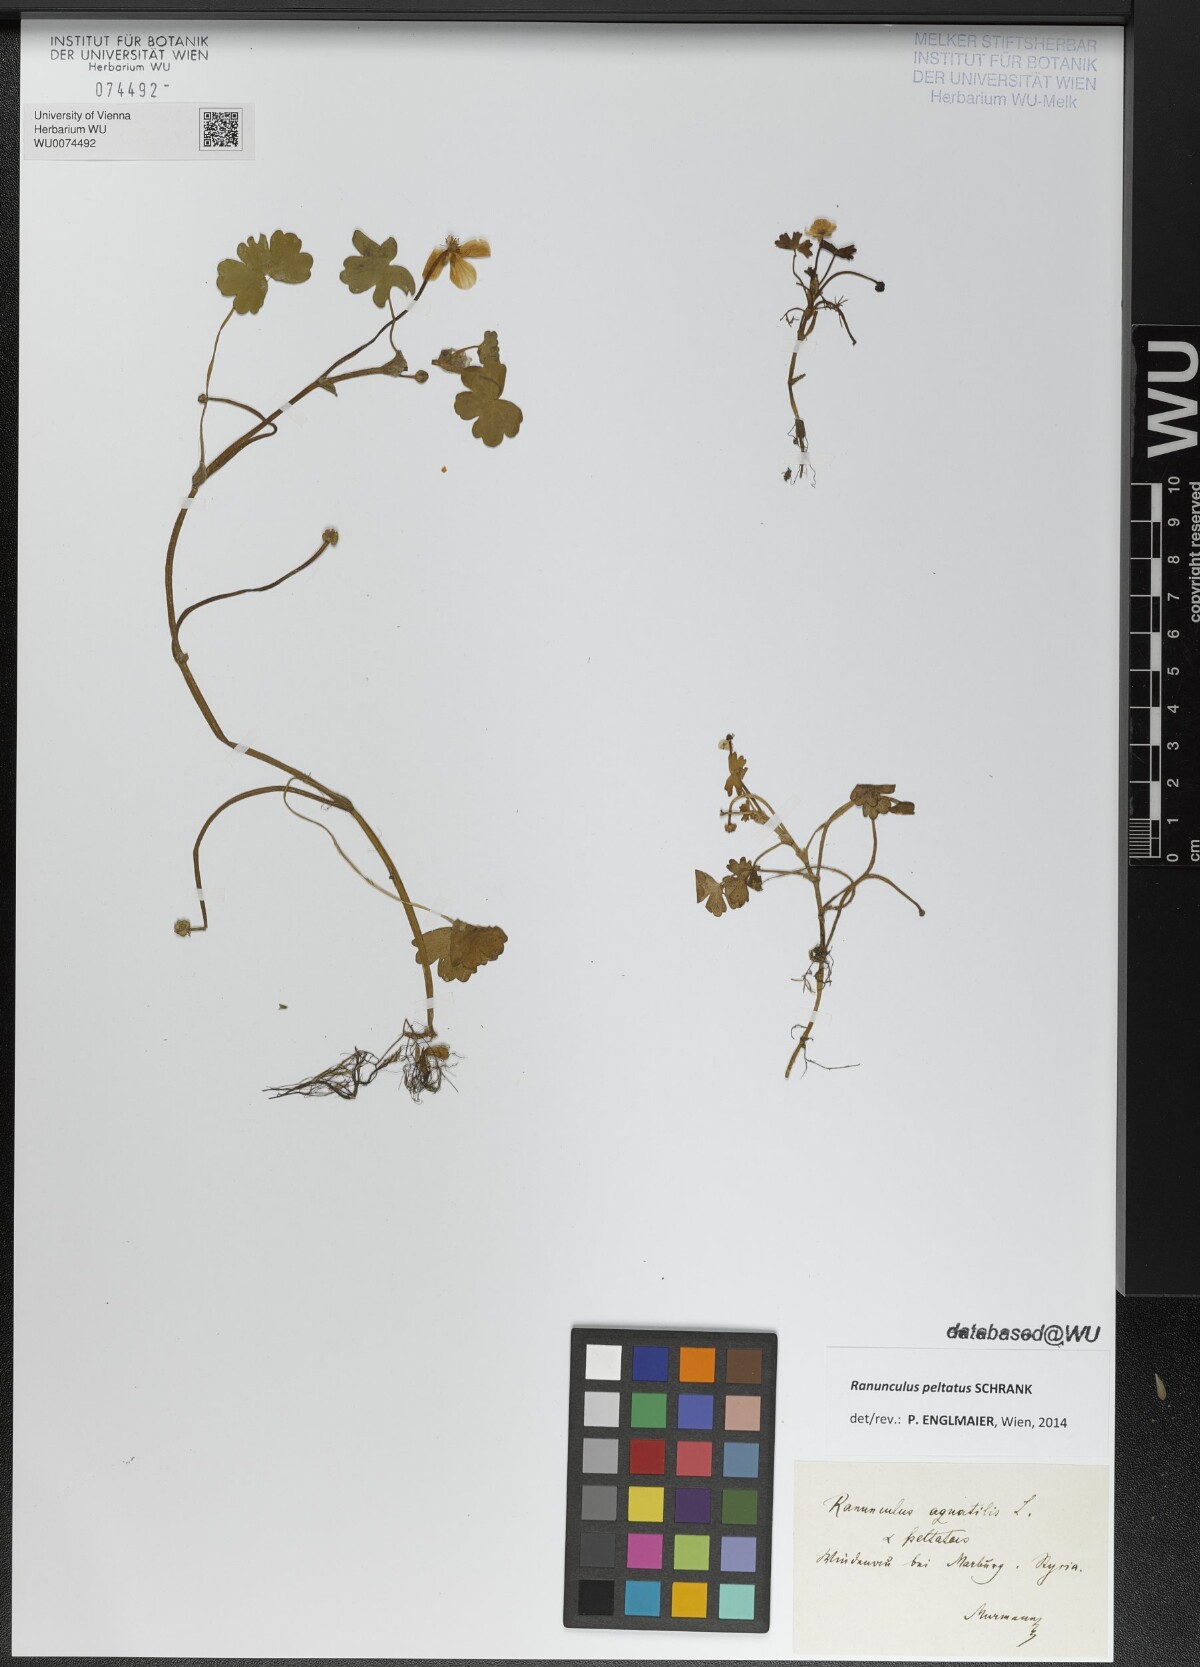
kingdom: Plantae
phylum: Tracheophyta
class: Magnoliopsida
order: Ranunculales
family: Ranunculaceae
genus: Ranunculus
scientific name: Ranunculus peltatus
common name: Pond water-crowfoot
